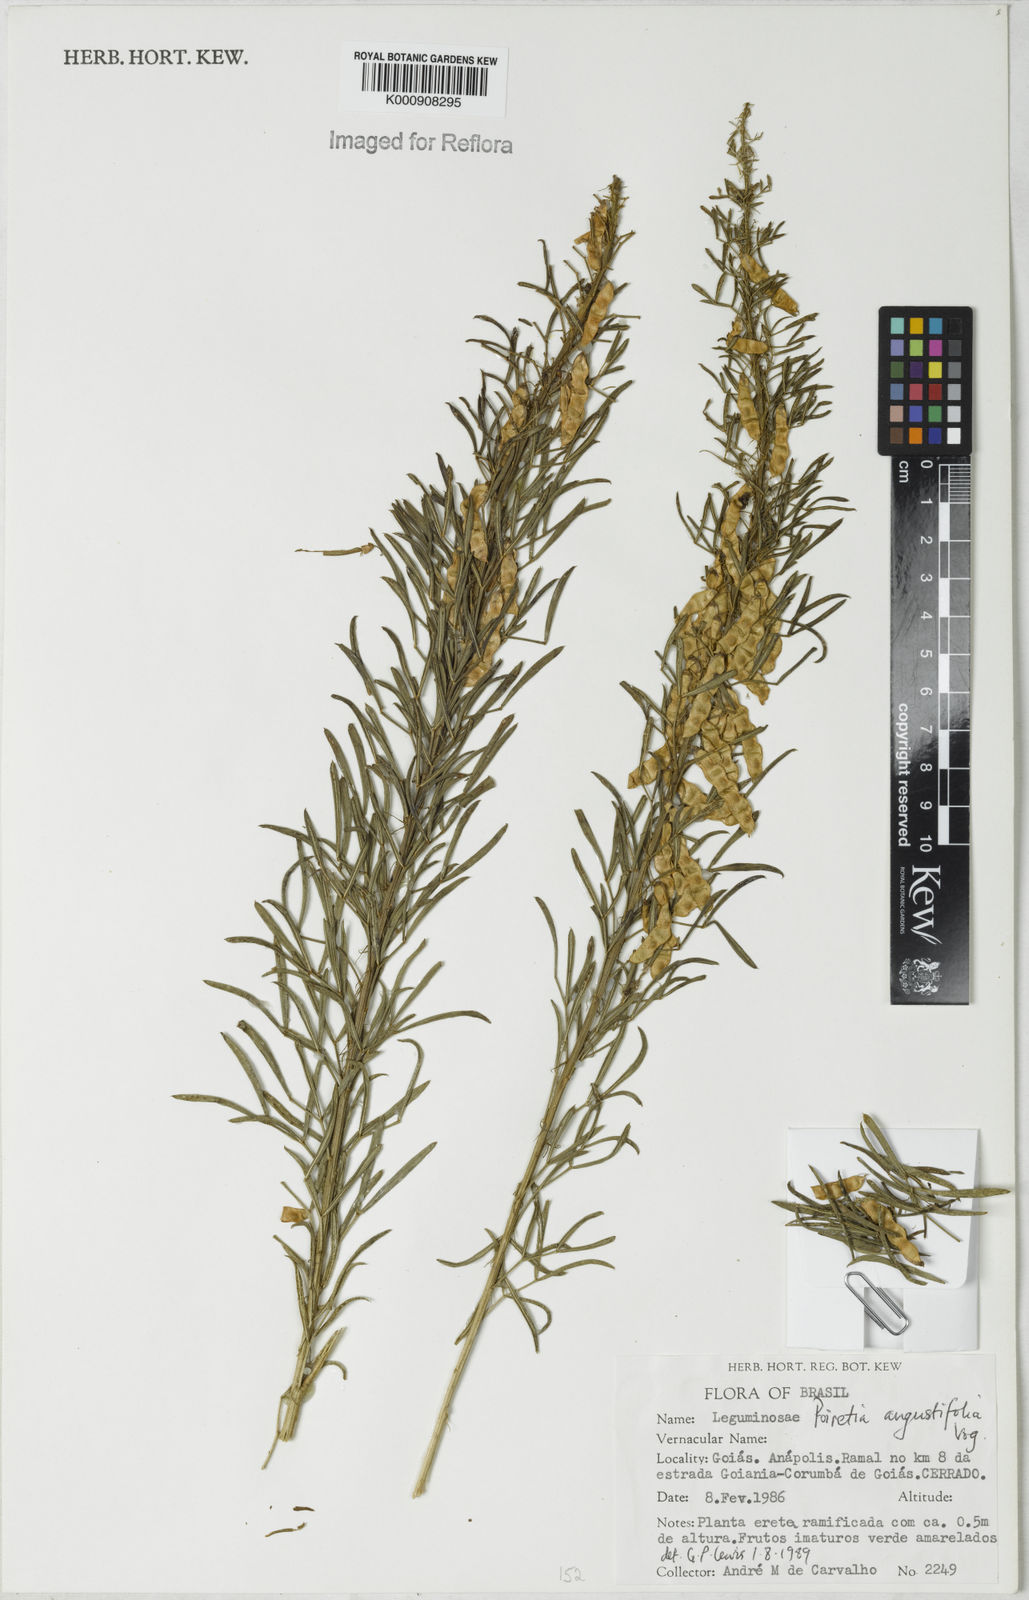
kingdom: Plantae
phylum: Tracheophyta
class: Magnoliopsida
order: Fabales
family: Fabaceae
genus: Poiretia
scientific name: Poiretia angustifolia
